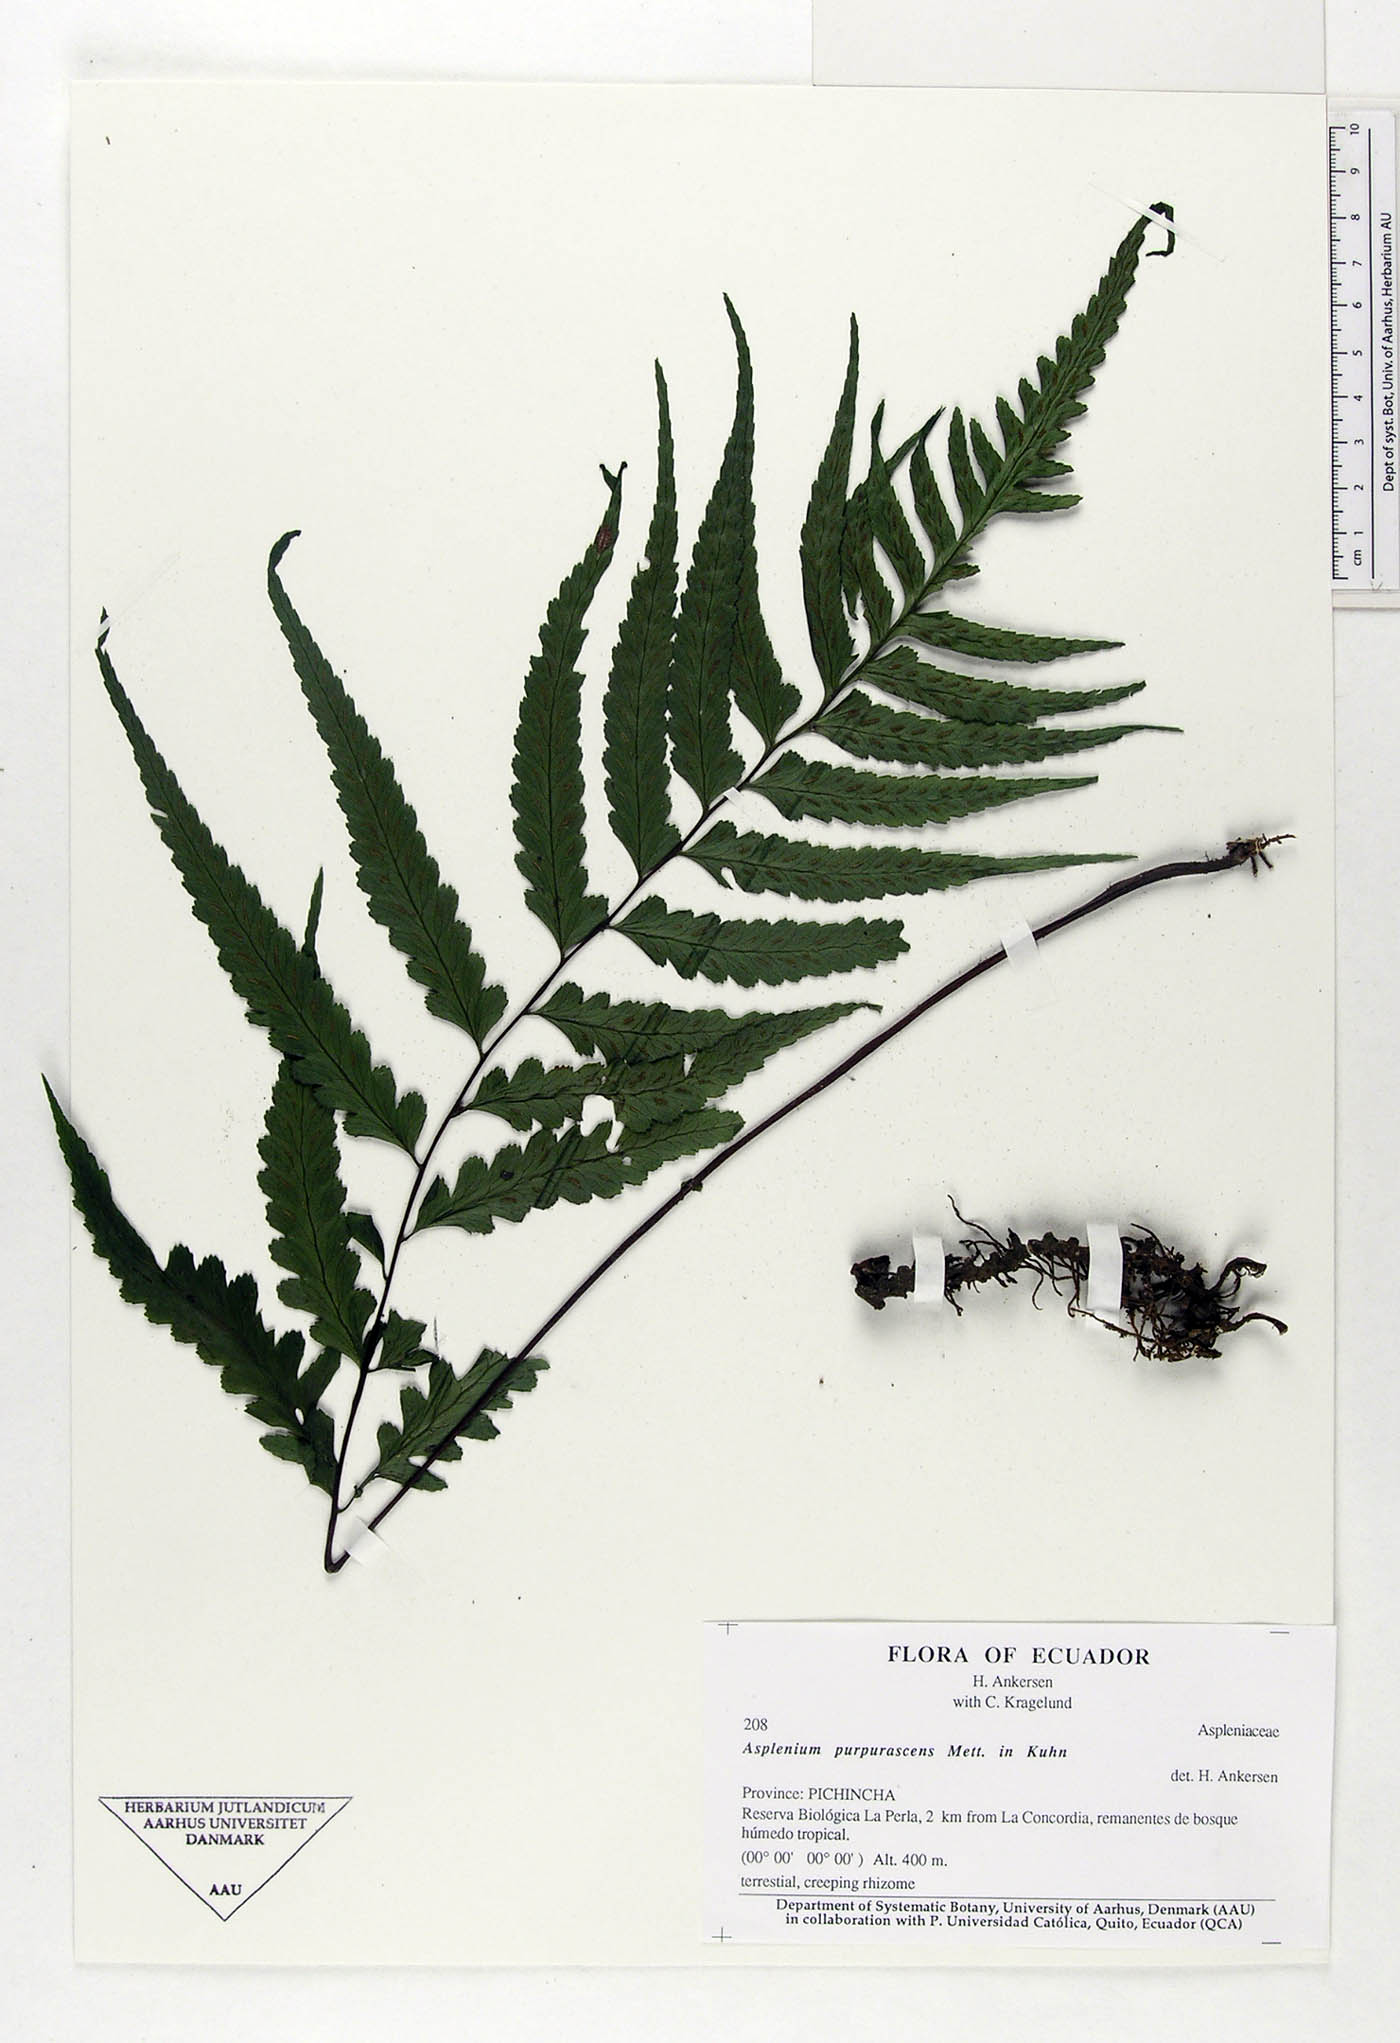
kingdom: Plantae
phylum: Tracheophyta
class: Polypodiopsida
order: Polypodiales
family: Aspleniaceae
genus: Hymenasplenium
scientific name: Hymenasplenium purpurascens
